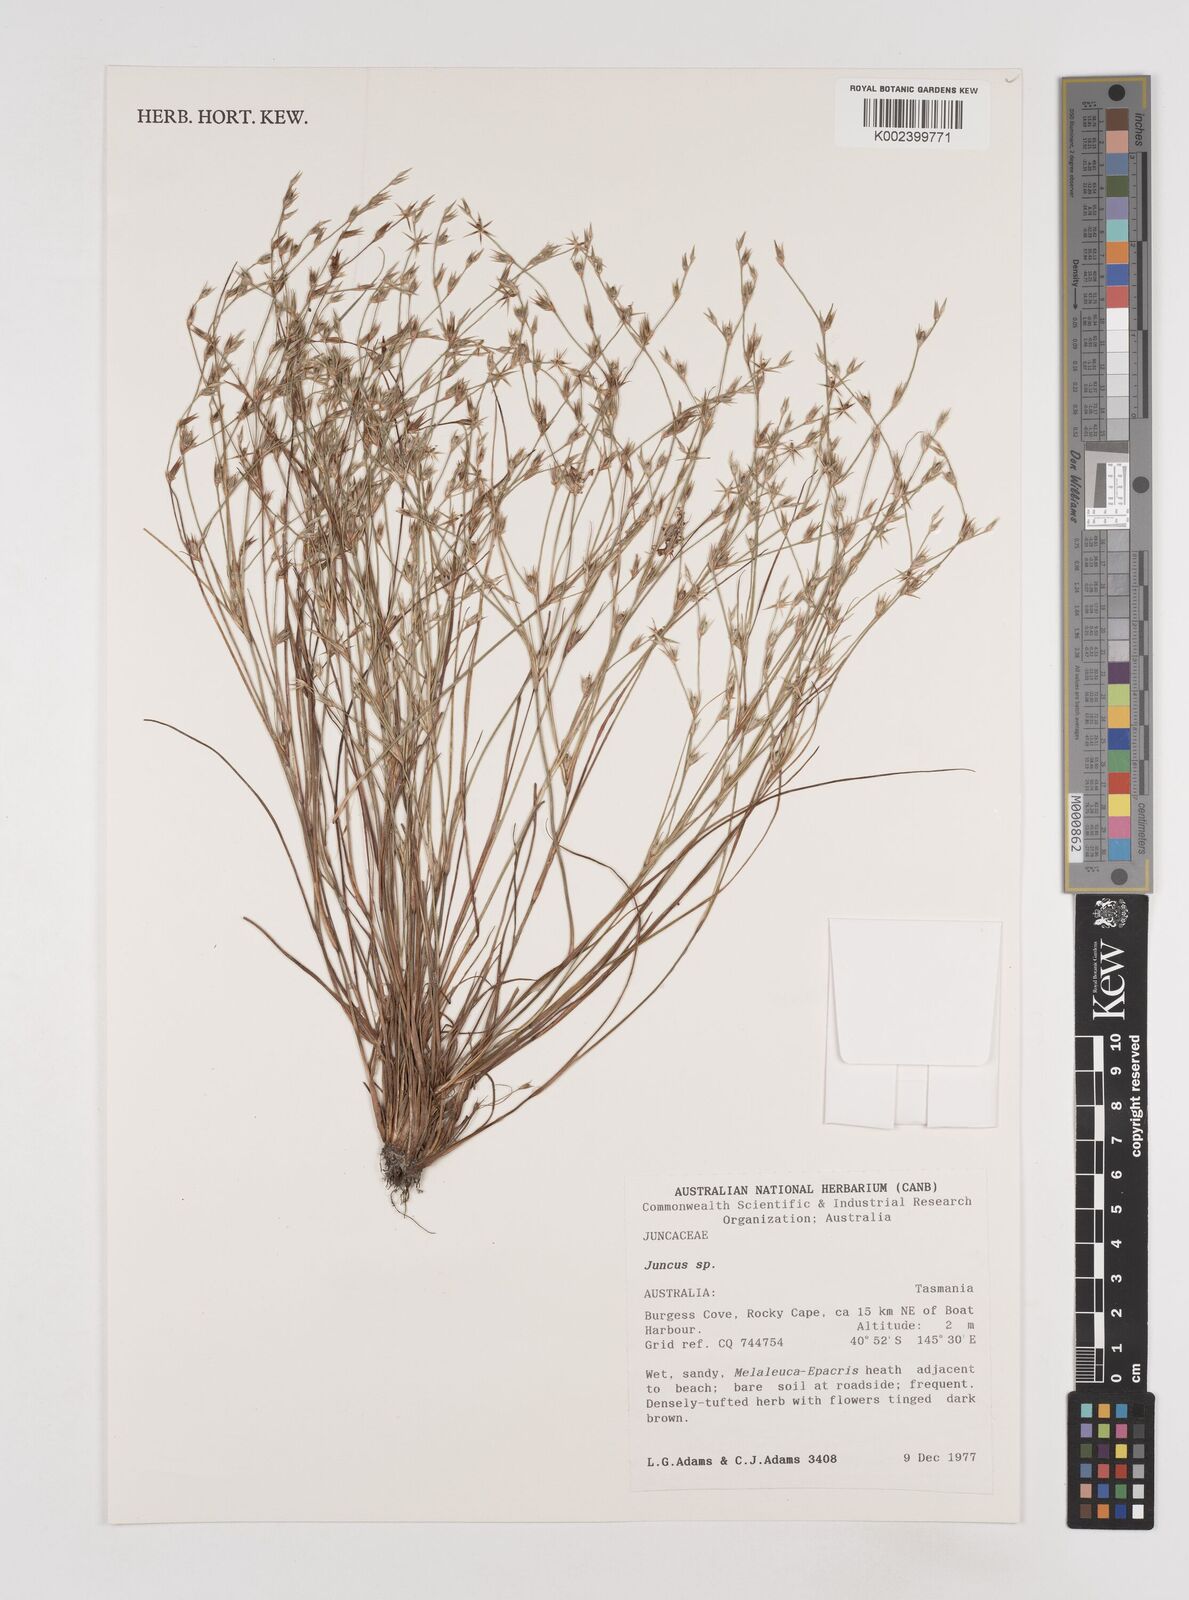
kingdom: Plantae
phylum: Tracheophyta
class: Liliopsida
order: Poales
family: Juncaceae
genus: Juncus
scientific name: Juncus
